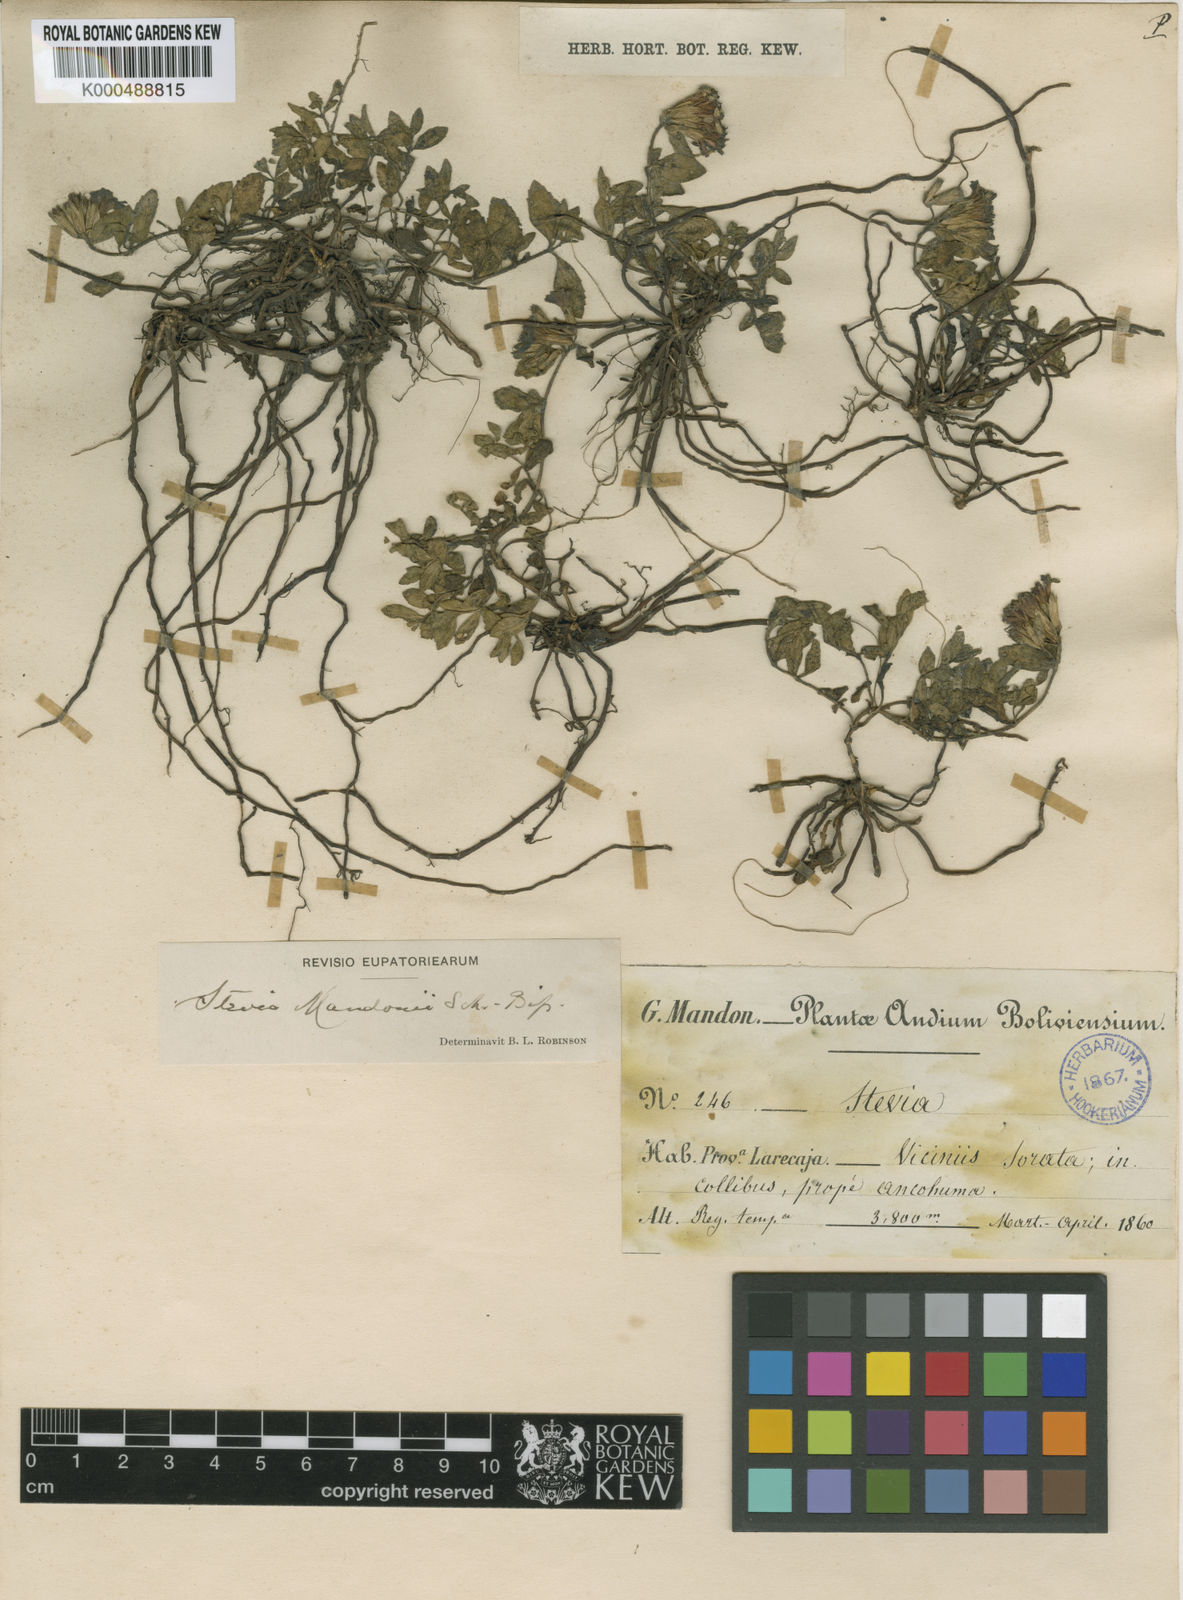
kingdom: Plantae
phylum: Tracheophyta
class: Magnoliopsida
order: Asterales
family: Asteraceae
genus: Stevia
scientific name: Stevia mandonii
